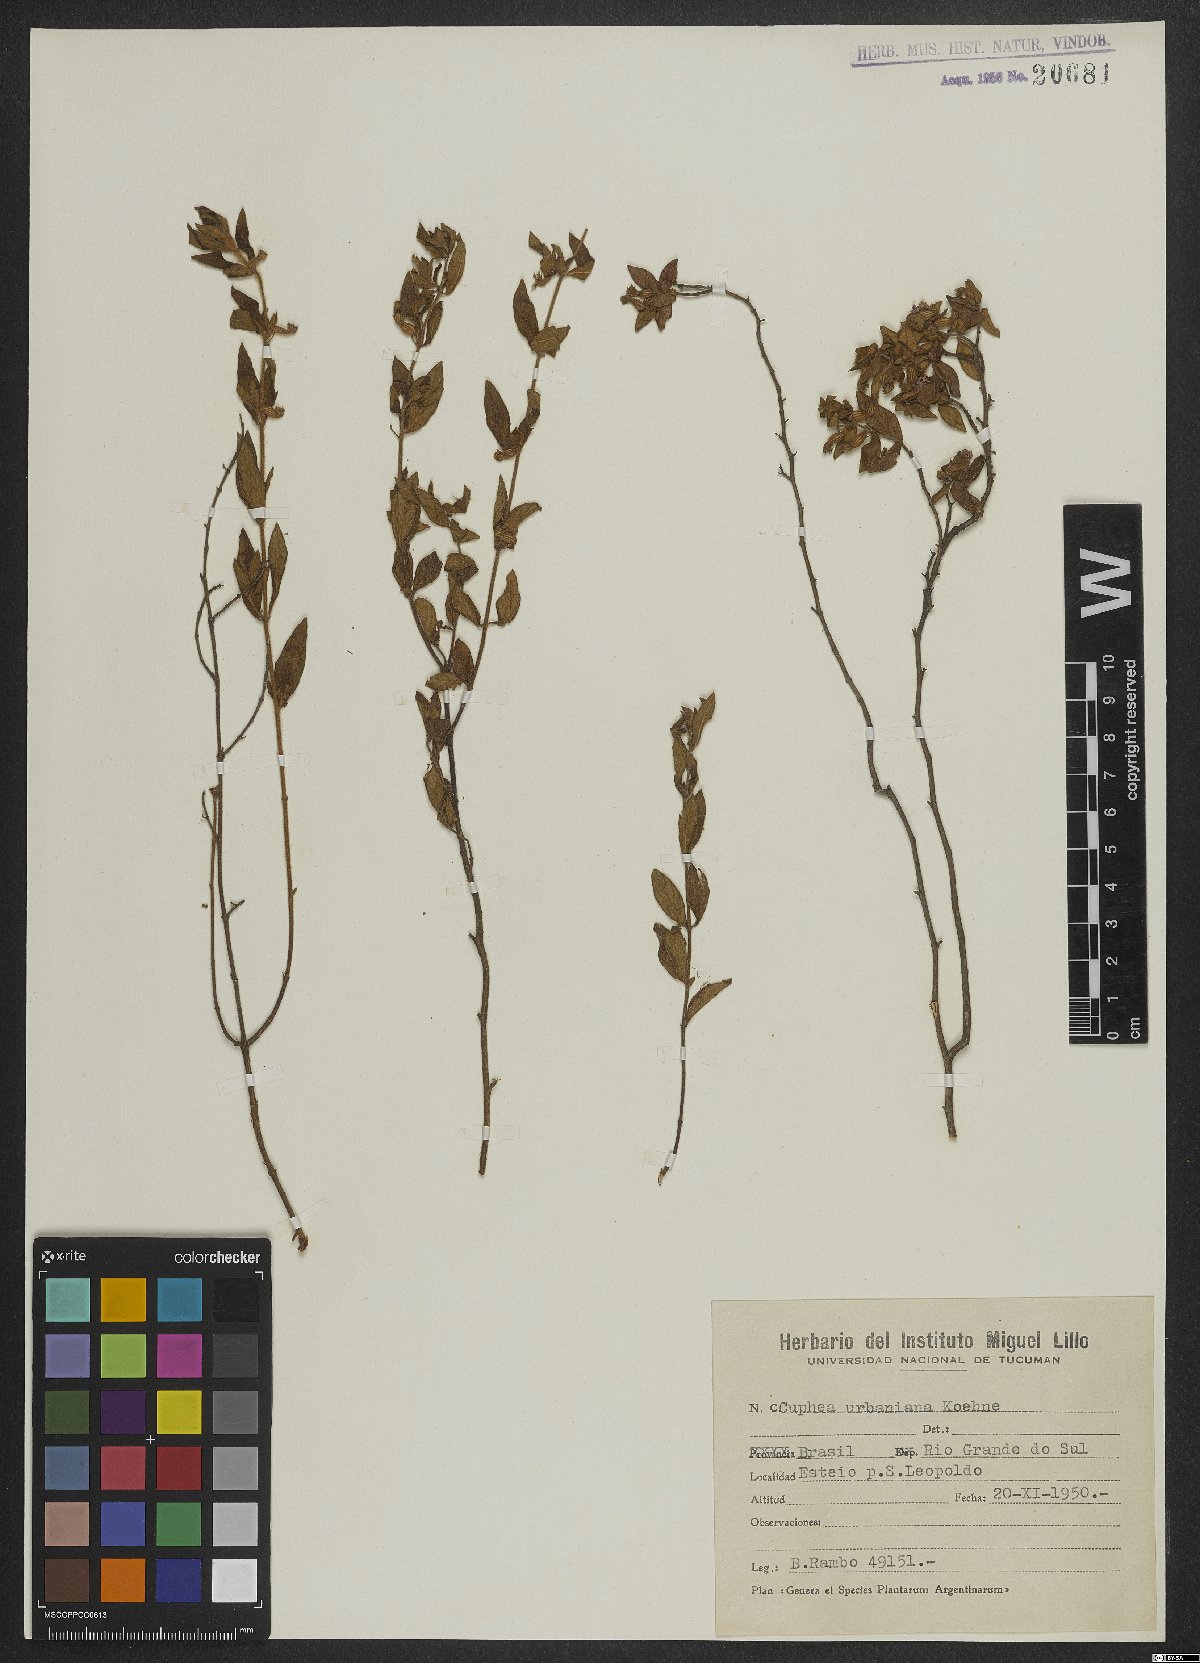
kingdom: Plantae
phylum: Tracheophyta
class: Magnoliopsida
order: Myrtales
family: Lythraceae
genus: Cuphea
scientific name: Cuphea urbaniana
